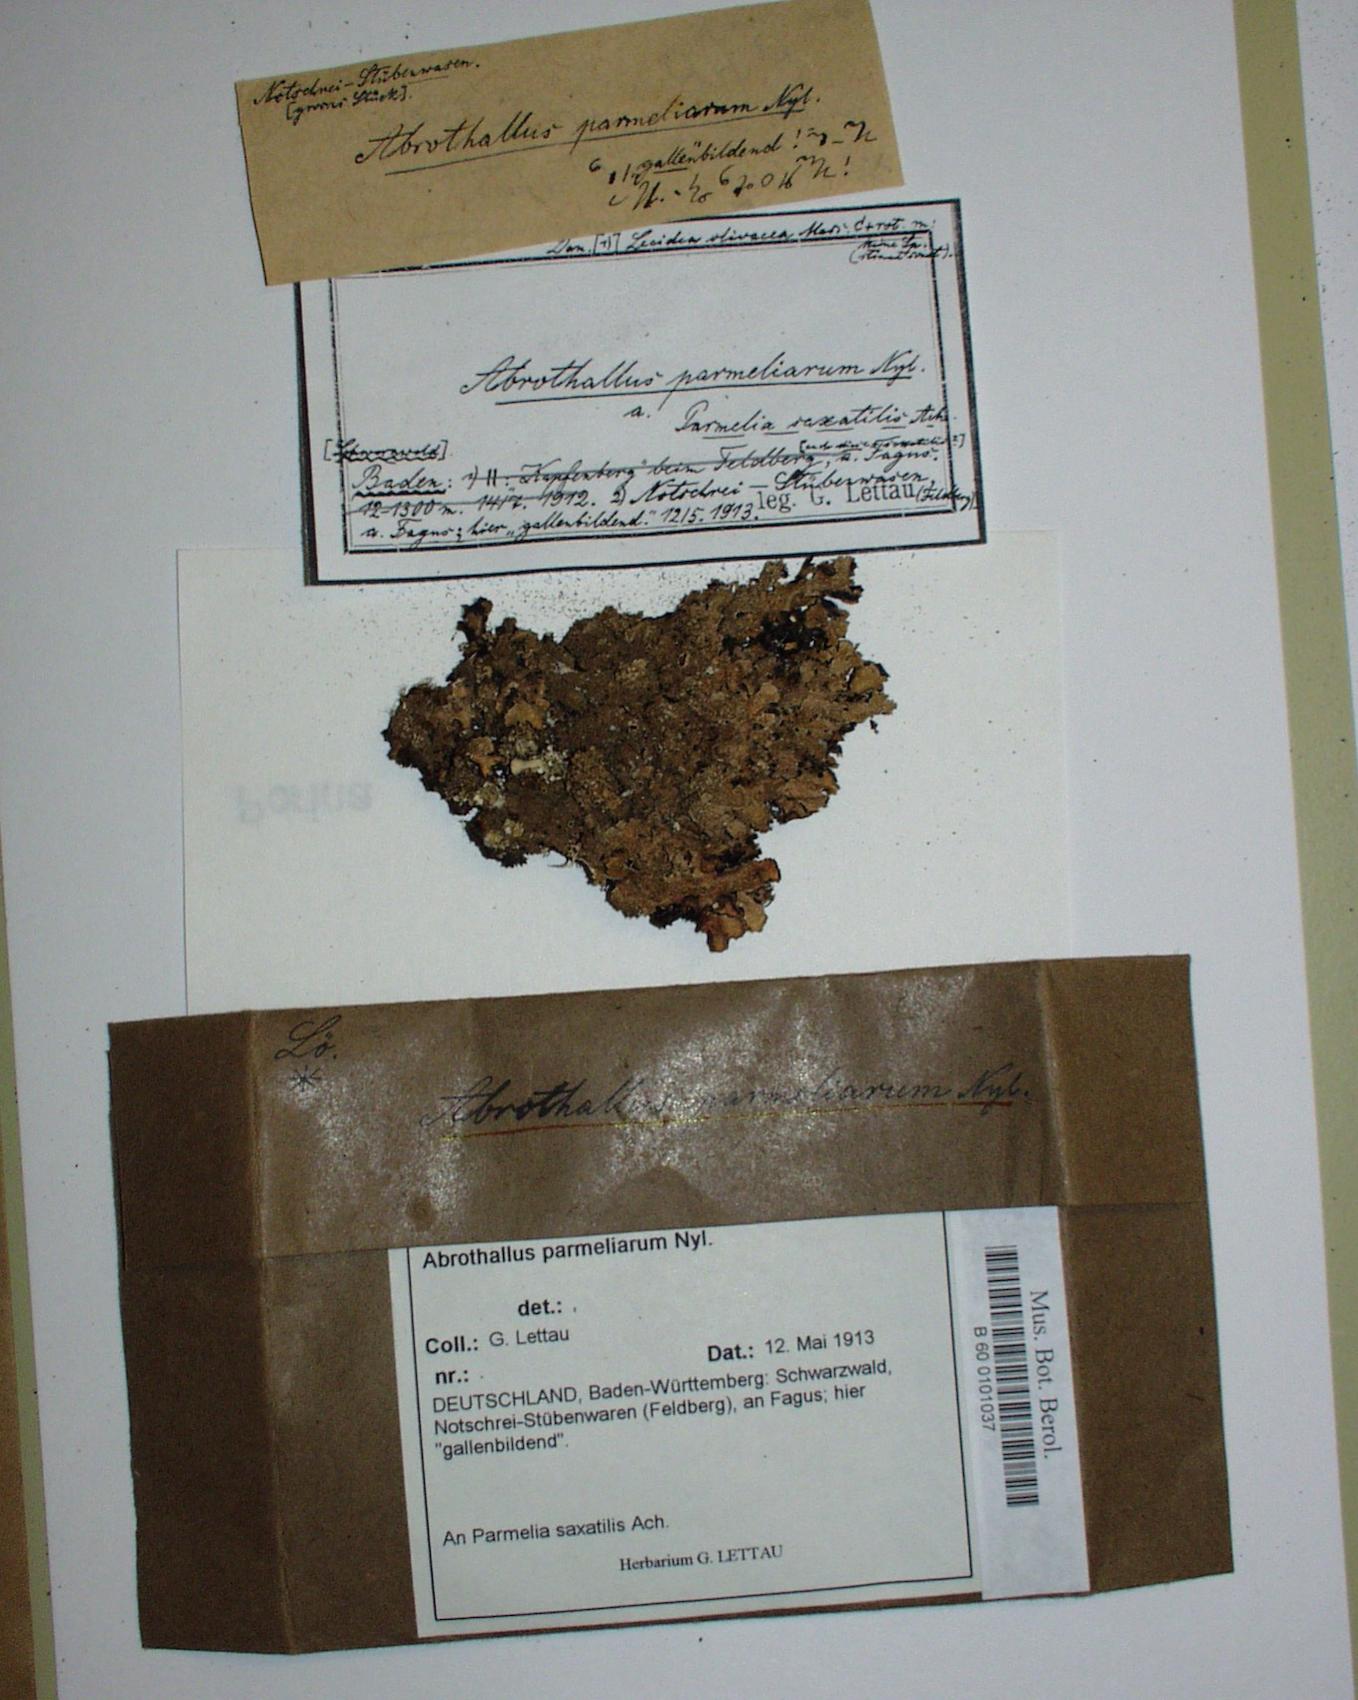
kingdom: Fungi
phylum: Ascomycota
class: Dothideomycetes
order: Abrothallales
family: Abrothallaceae
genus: Abrothallus
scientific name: Abrothallus parmeliarum
